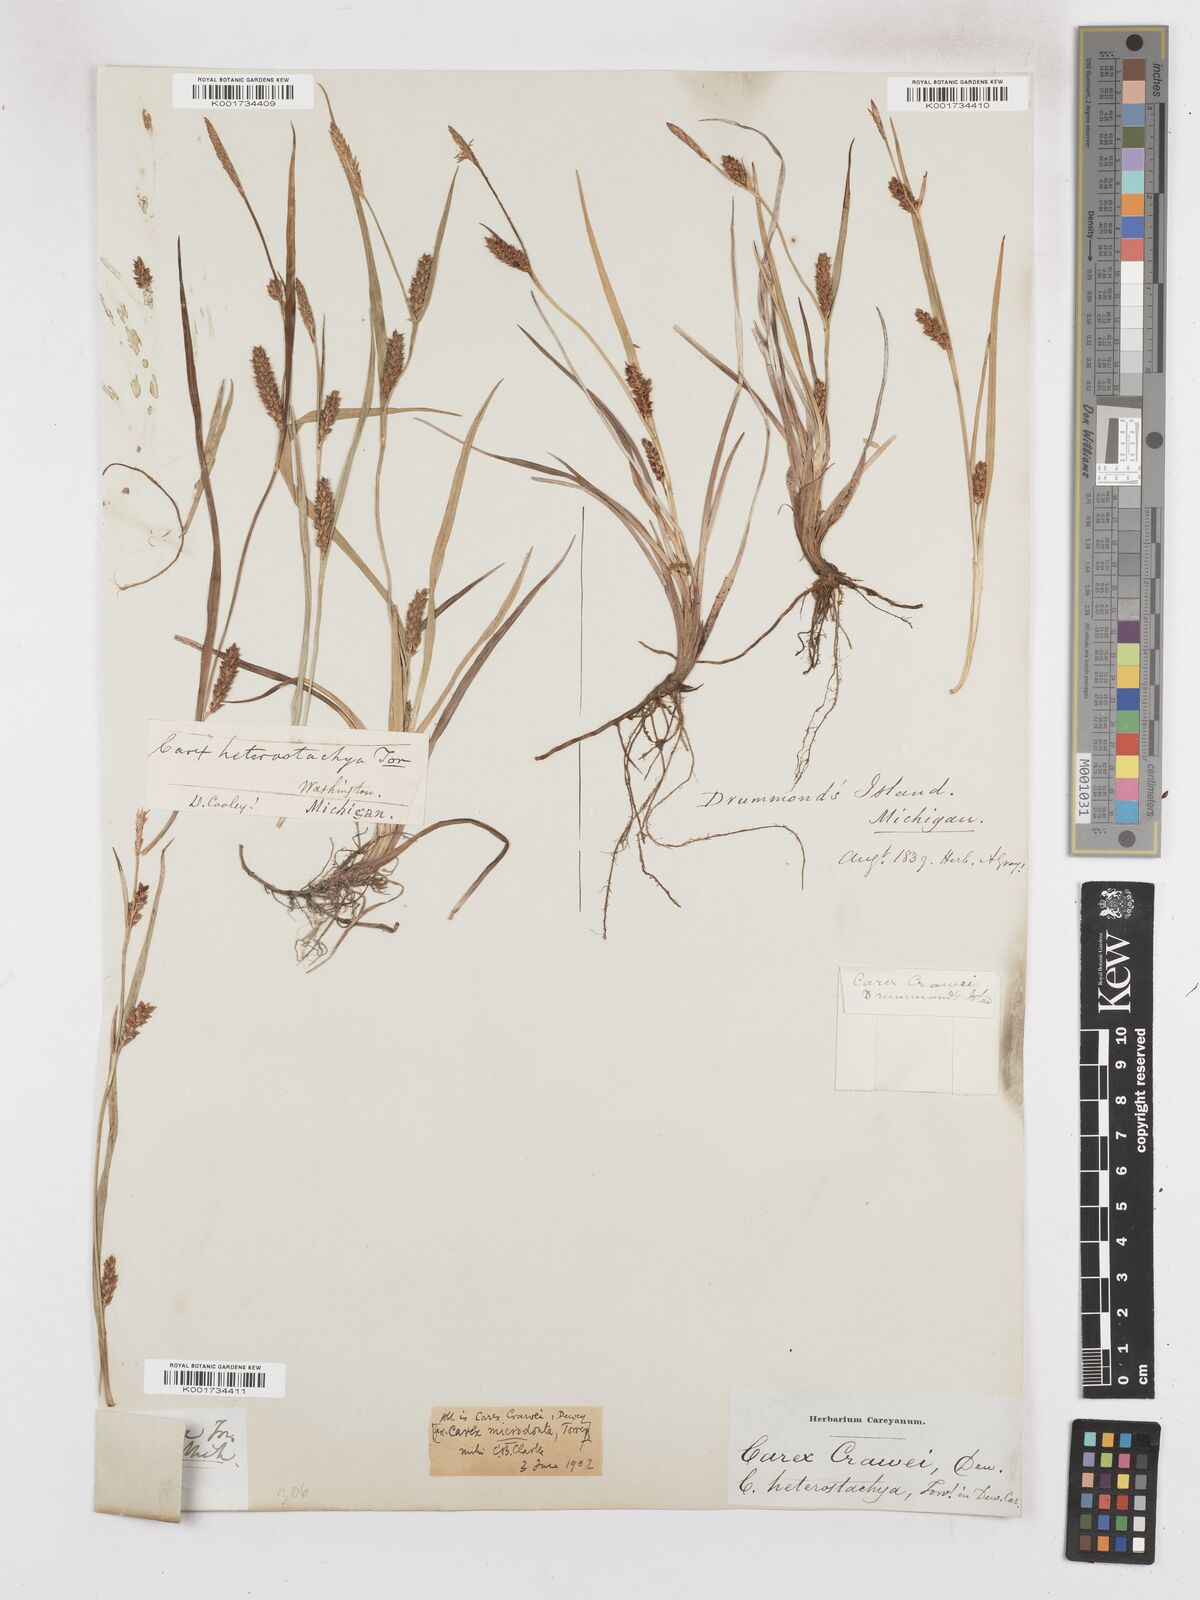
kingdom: Plantae
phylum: Tracheophyta
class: Liliopsida
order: Poales
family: Cyperaceae
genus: Carex
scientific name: Carex crawei
